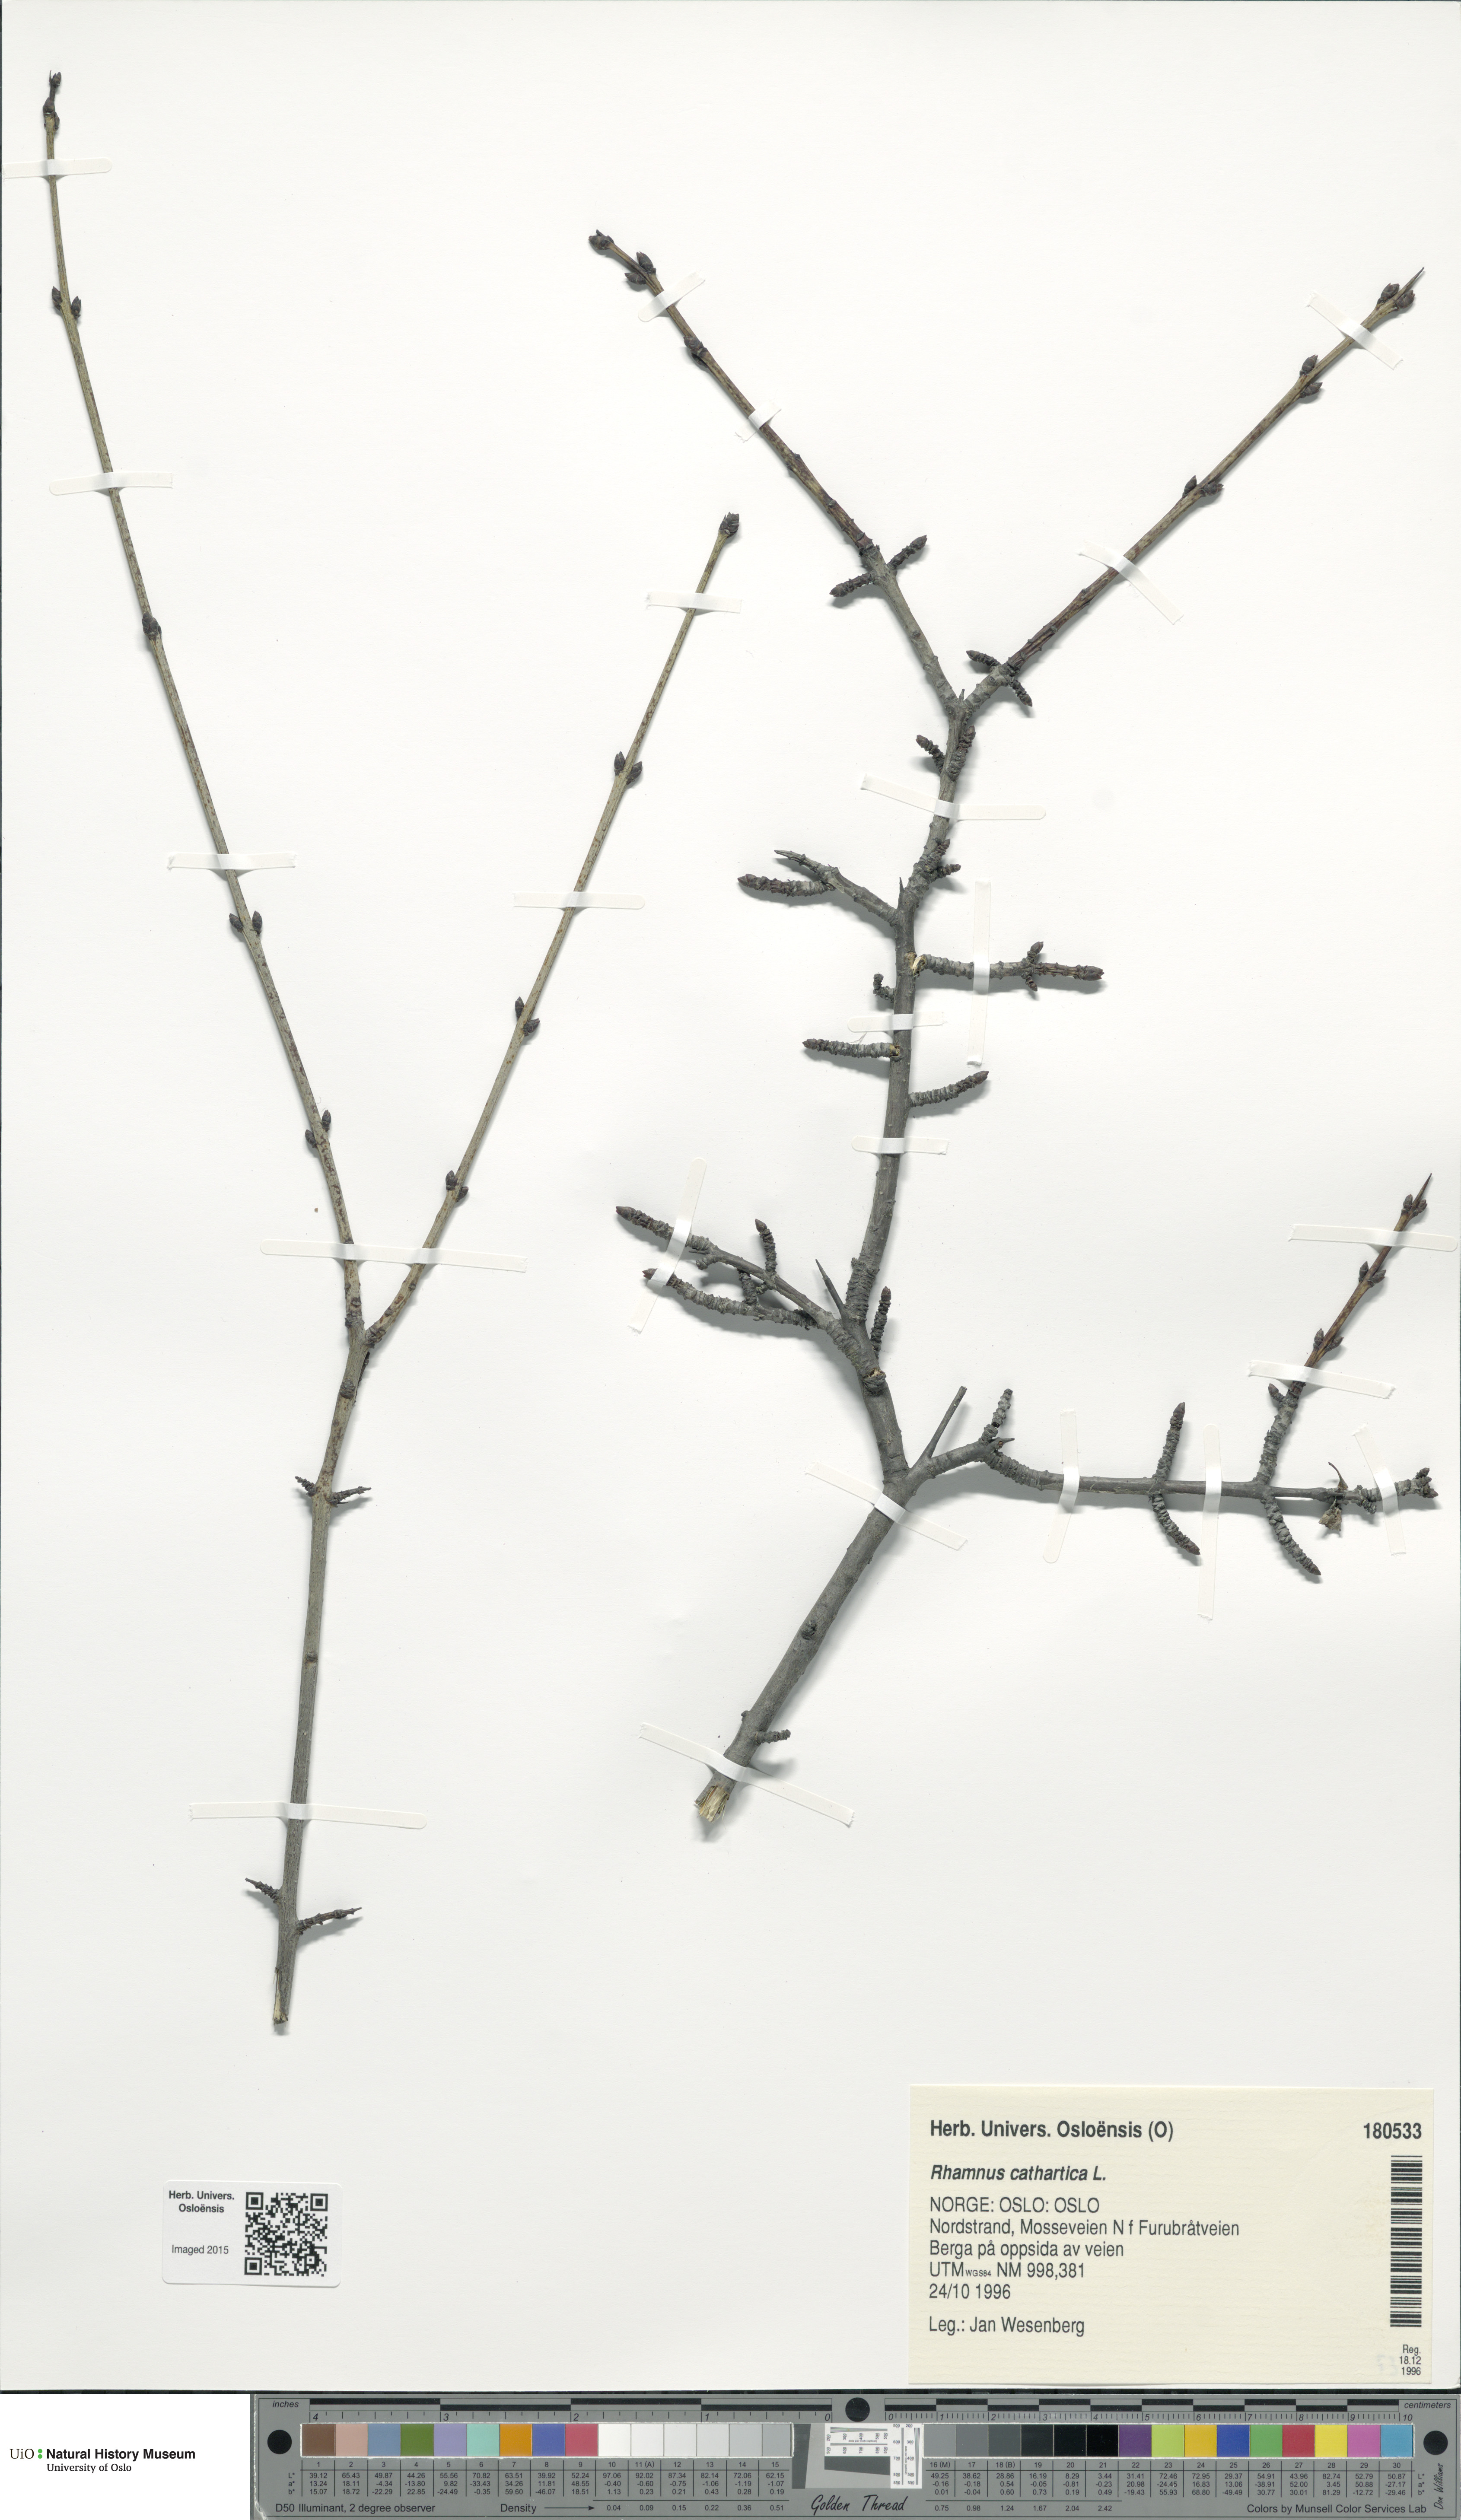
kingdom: Plantae
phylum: Tracheophyta
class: Magnoliopsida
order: Rosales
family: Rhamnaceae
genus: Rhamnus
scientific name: Rhamnus cathartica
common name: Common buckthorn
